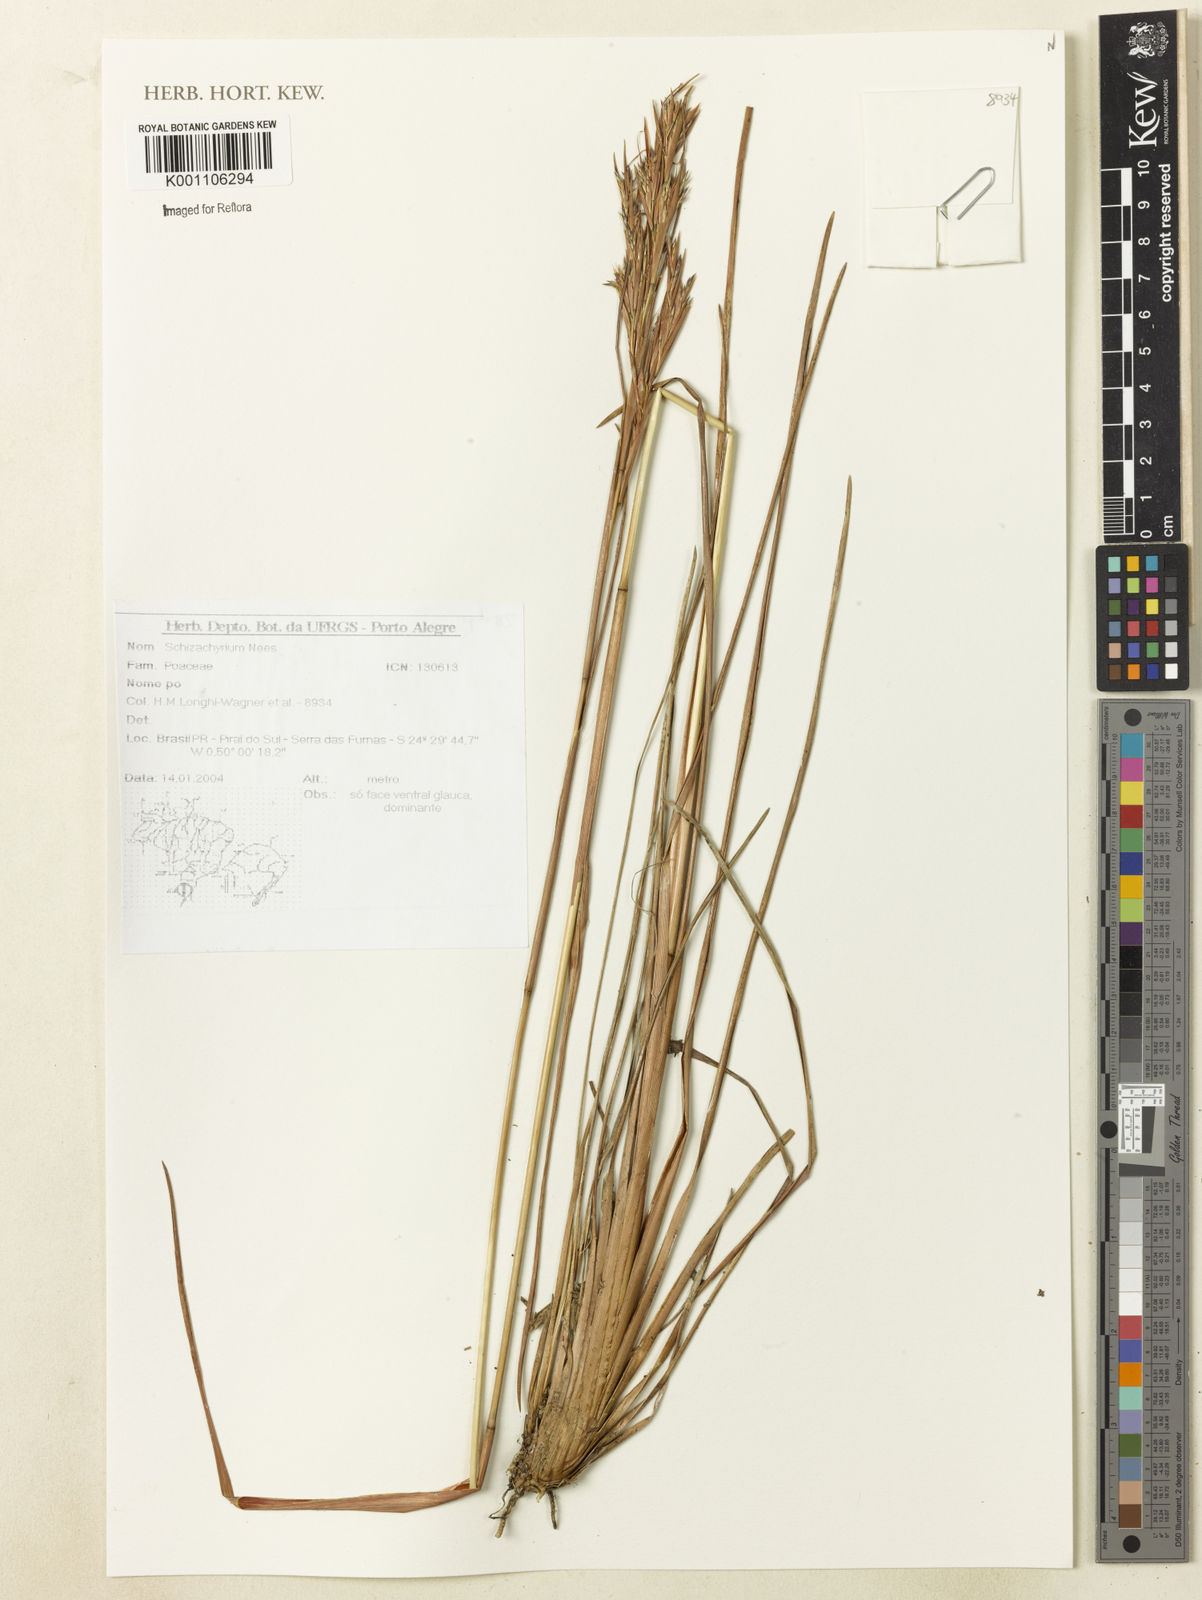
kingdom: Plantae
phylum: Tracheophyta
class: Liliopsida
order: Poales
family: Poaceae
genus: Schizachyrium
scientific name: Schizachyrium
